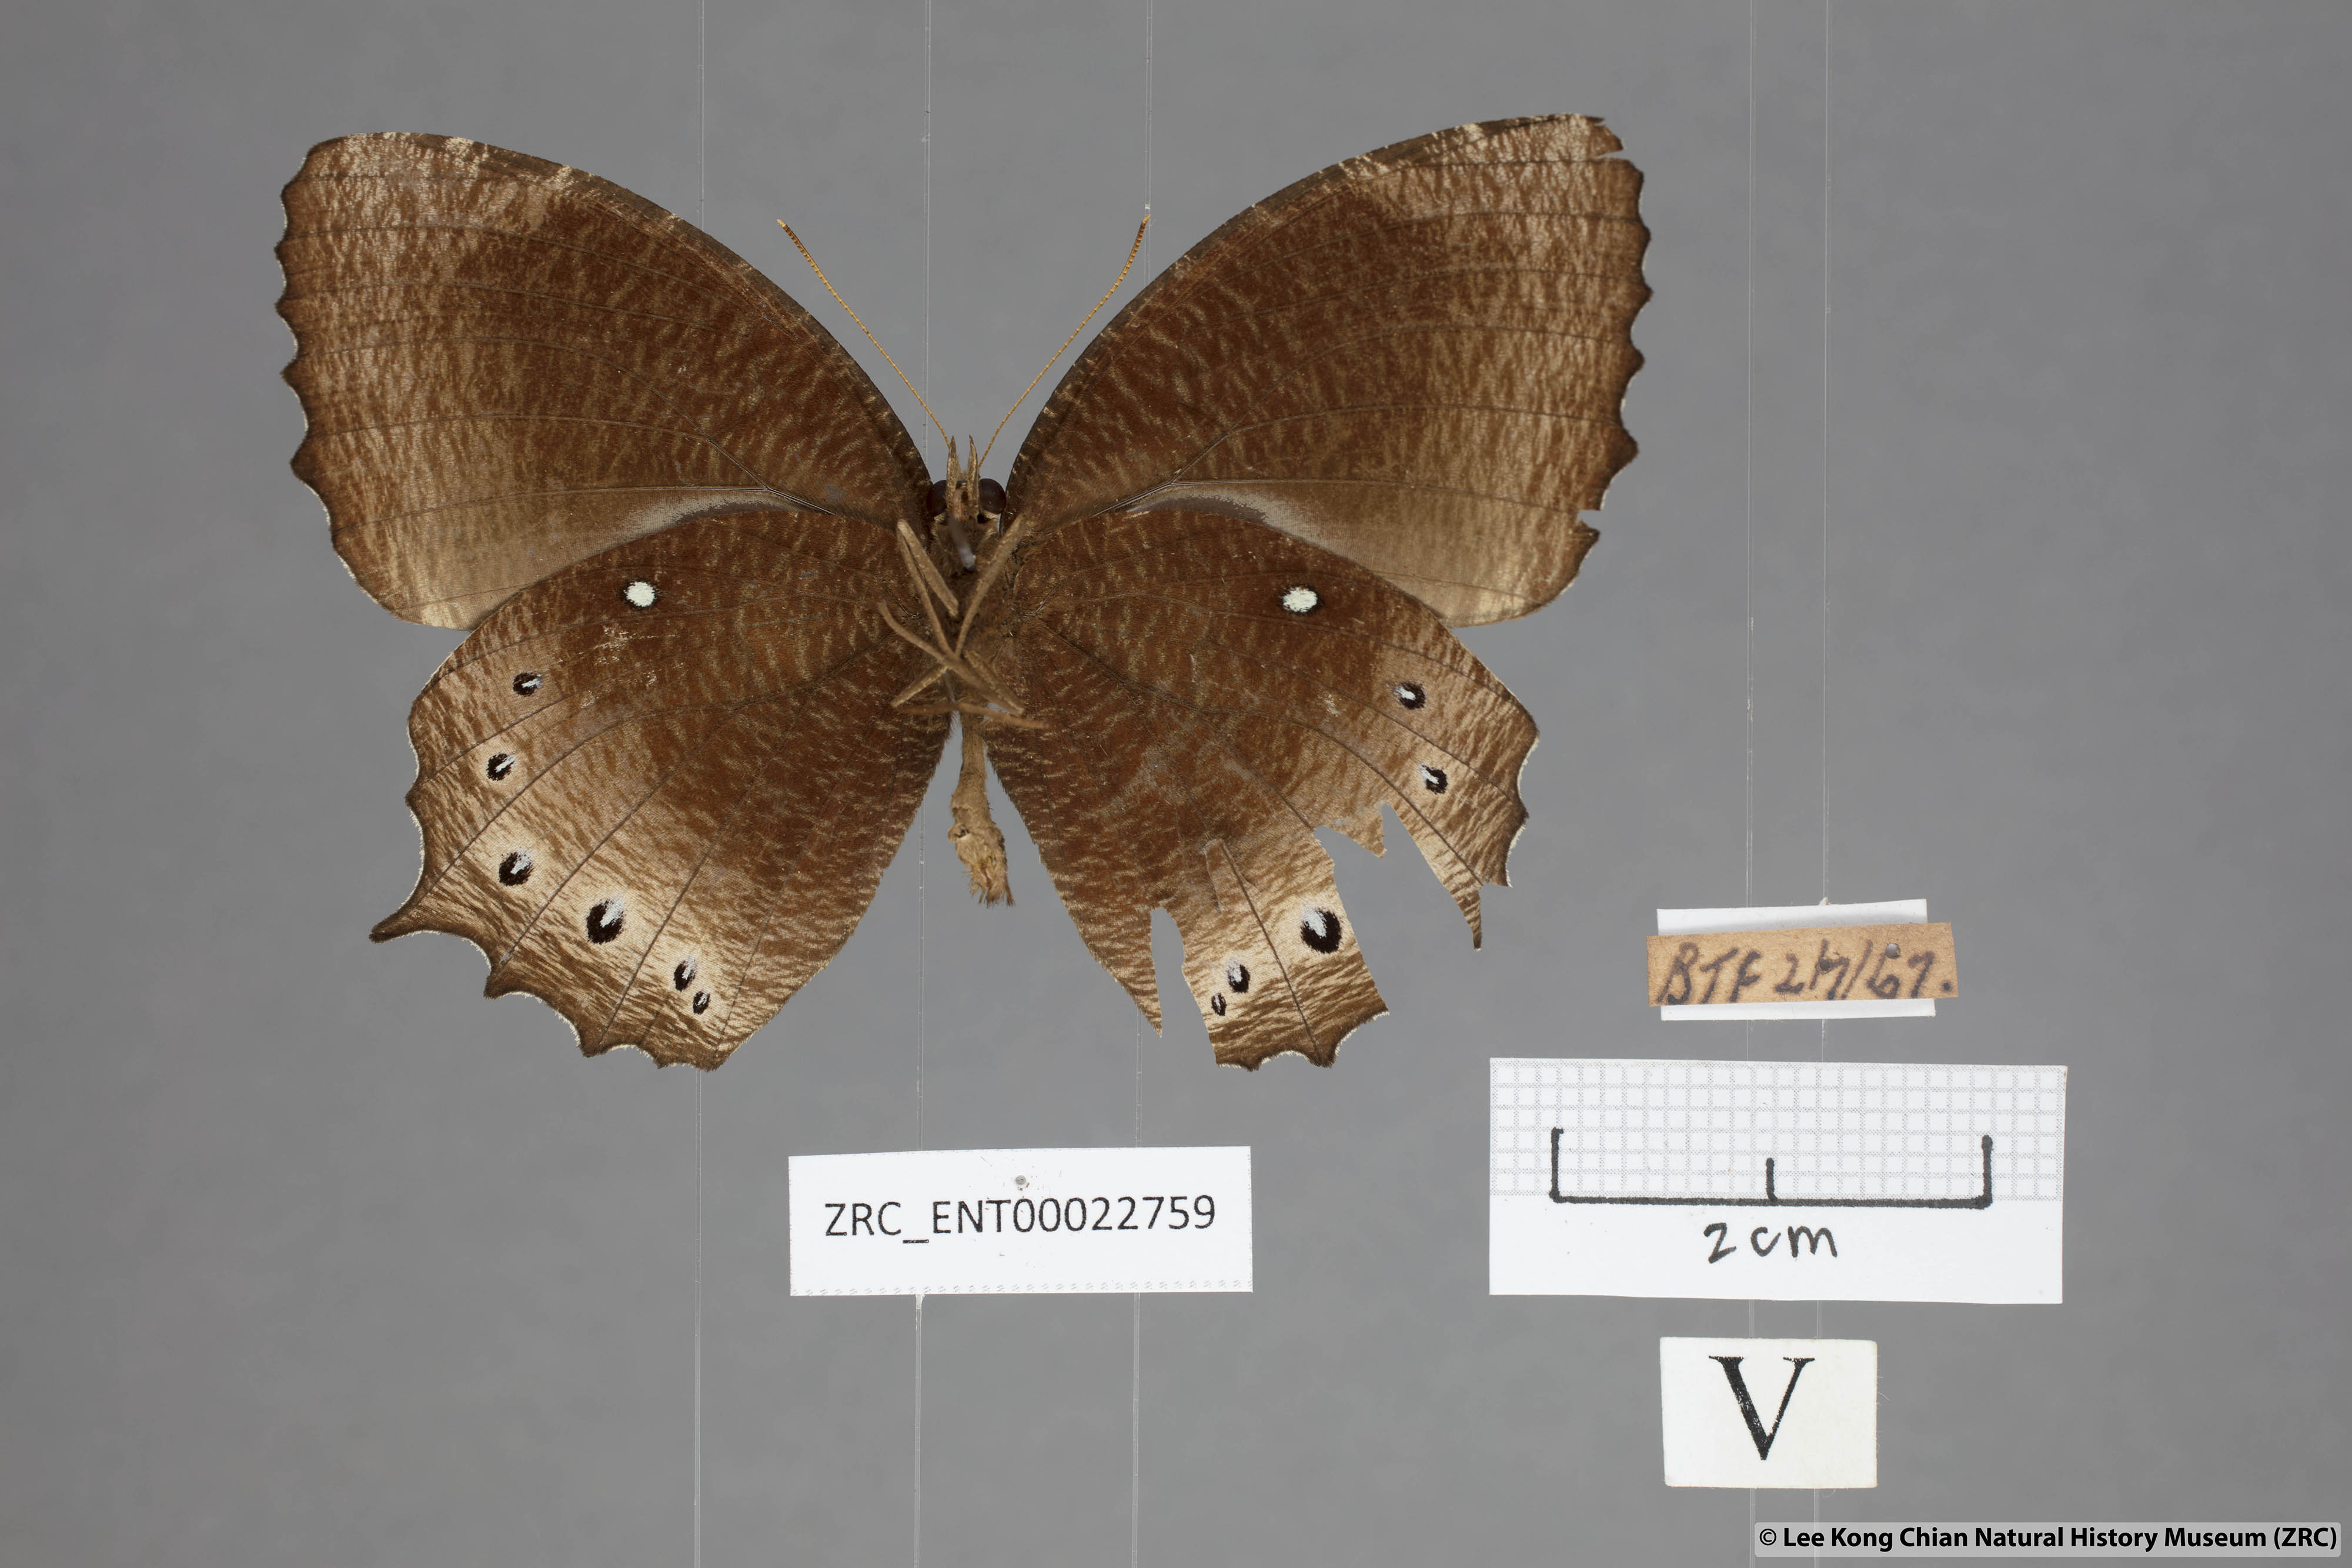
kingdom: Animalia
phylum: Arthropoda
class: Insecta
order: Lepidoptera
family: Nymphalidae
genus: Elymnias
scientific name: Elymnias panthera
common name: Tawny palmfly
